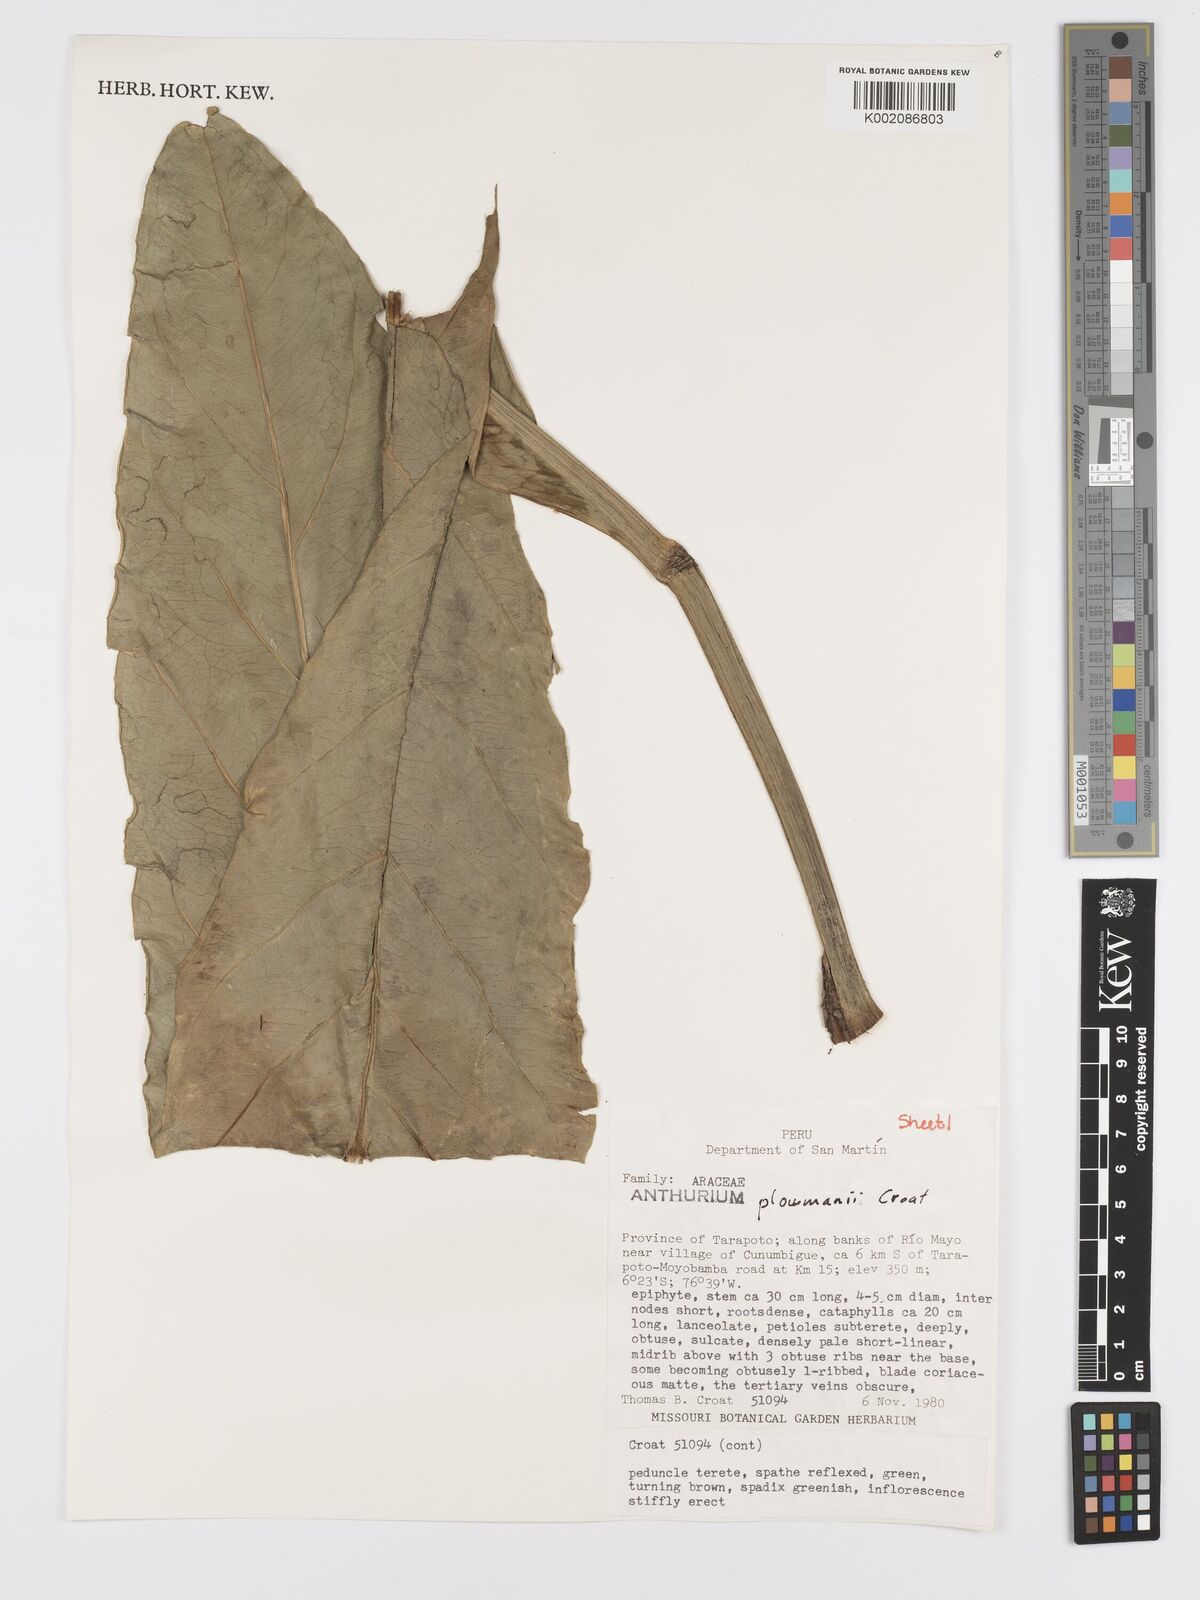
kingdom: Plantae
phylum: Tracheophyta
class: Liliopsida
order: Alismatales
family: Araceae
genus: Anthurium
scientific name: Anthurium plowmanii
